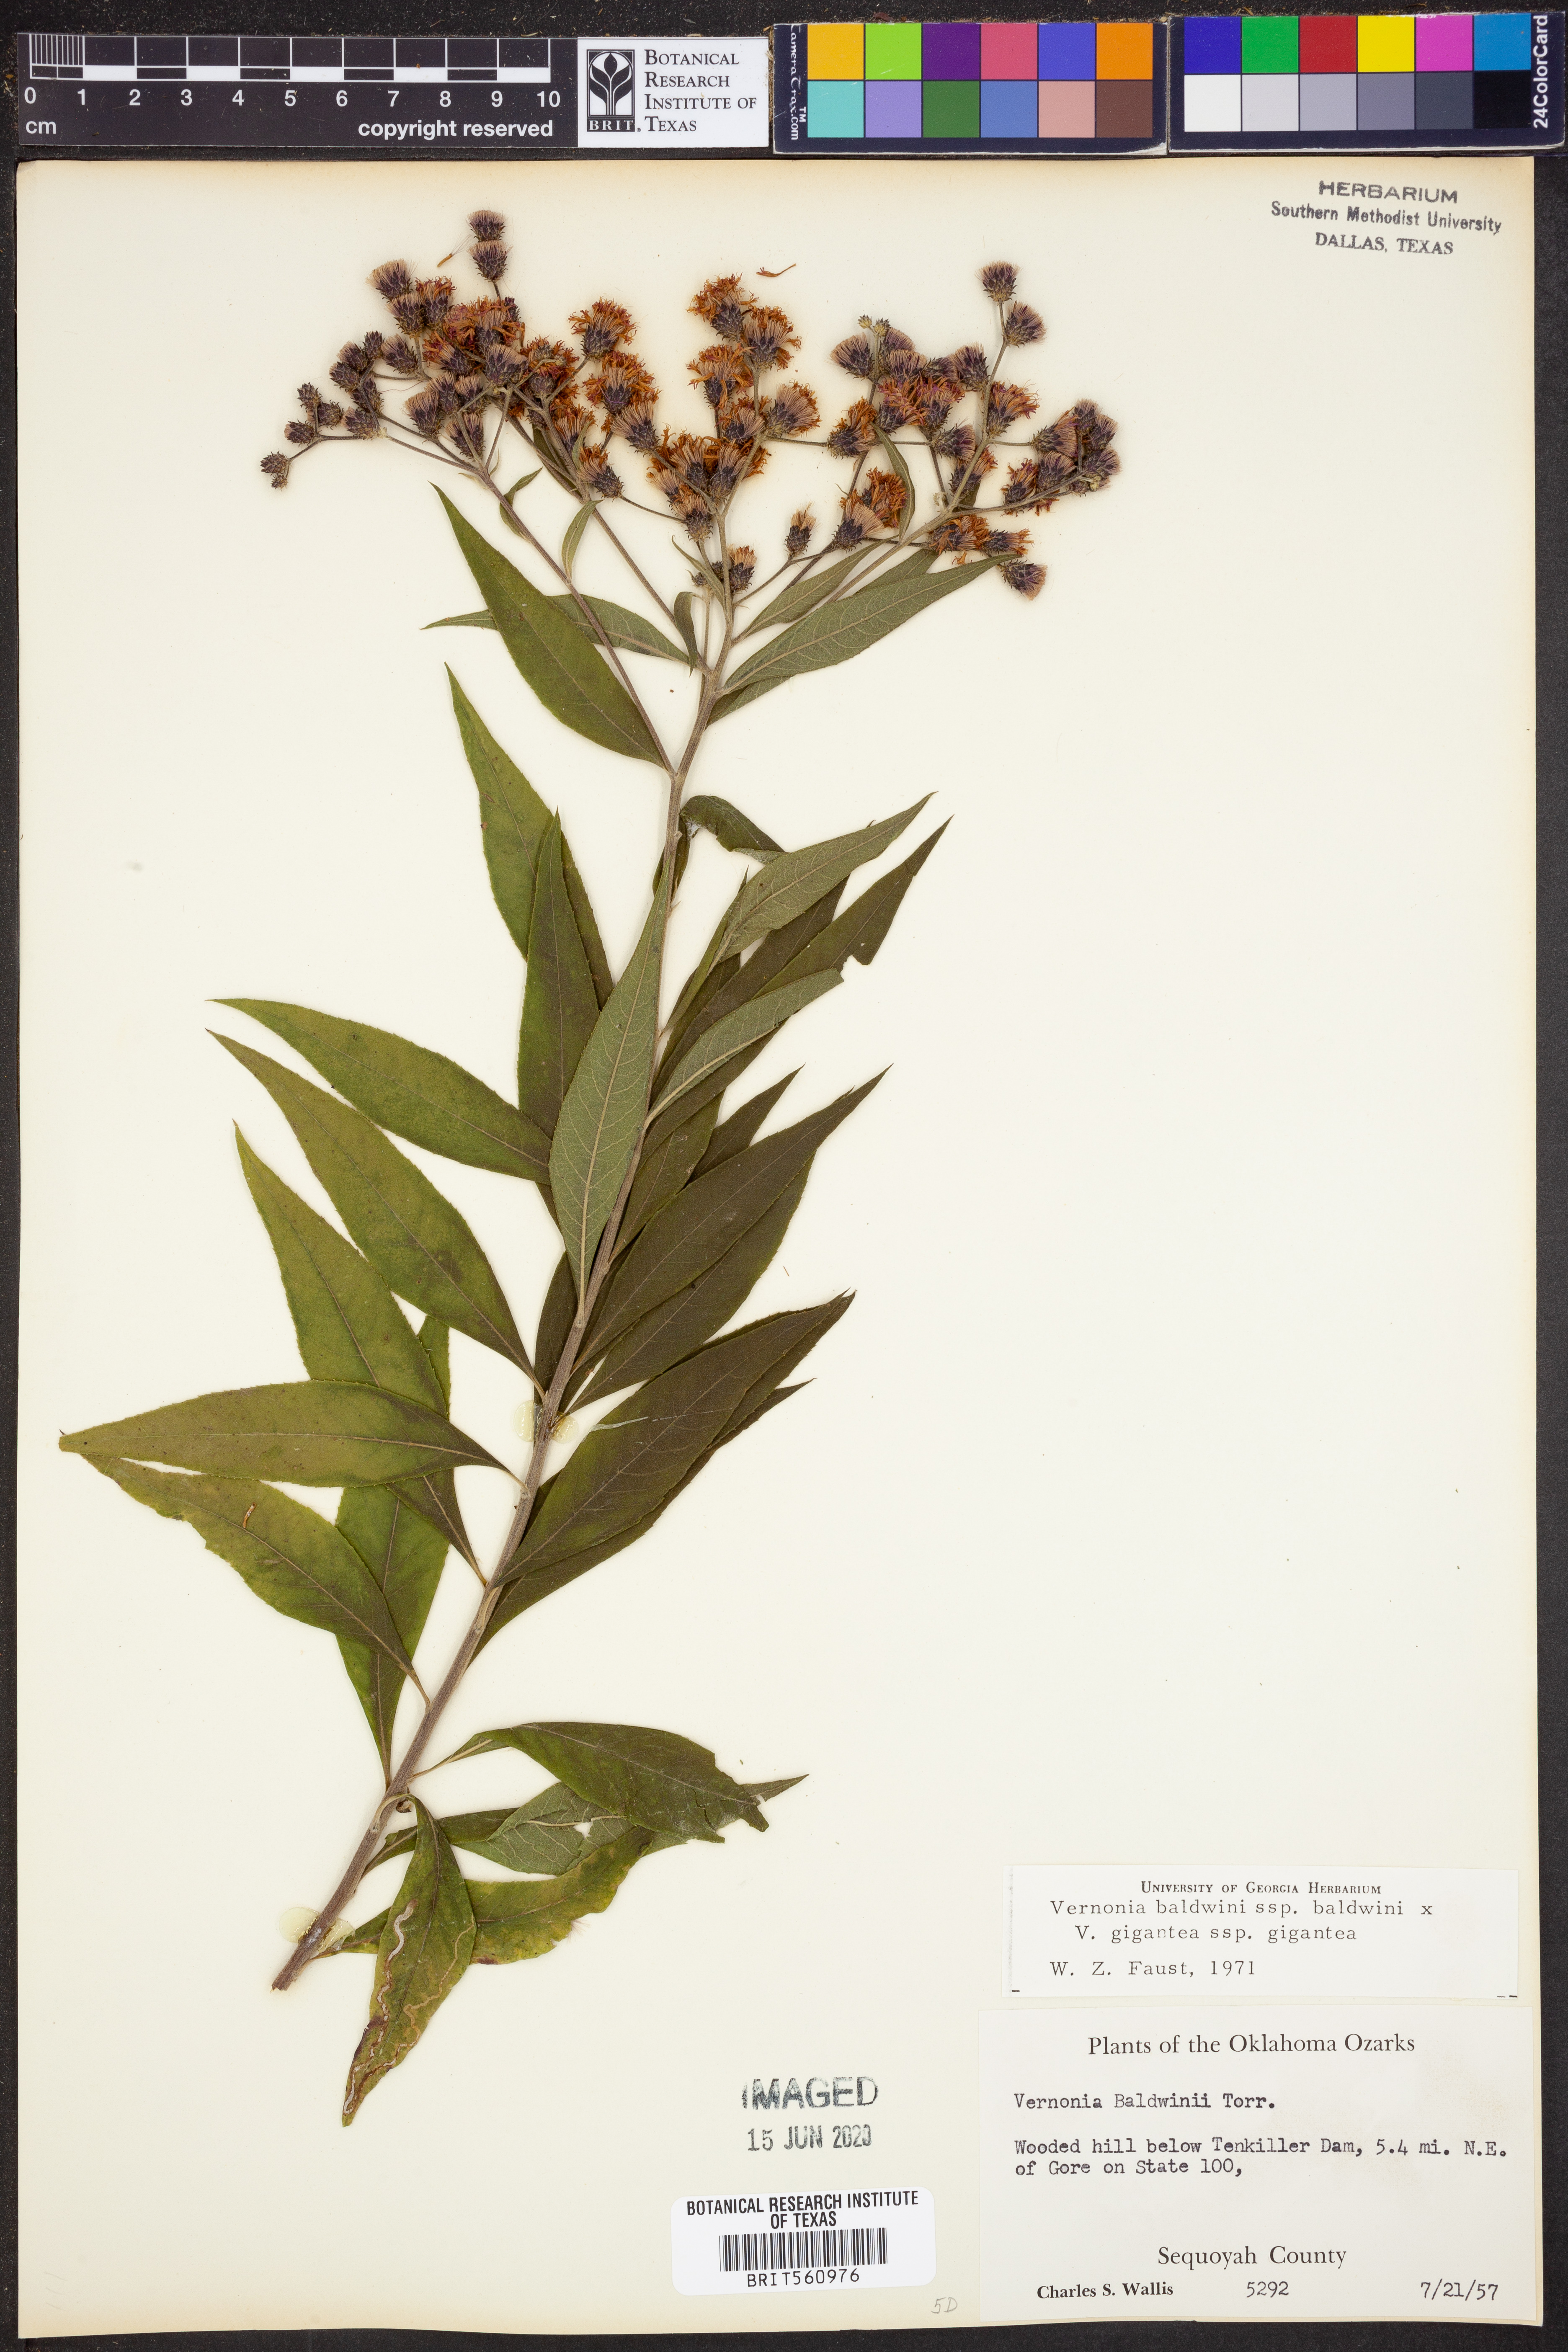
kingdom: Plantae
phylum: Tracheophyta
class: Magnoliopsida
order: Asterales
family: Asteraceae
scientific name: Asteraceae
